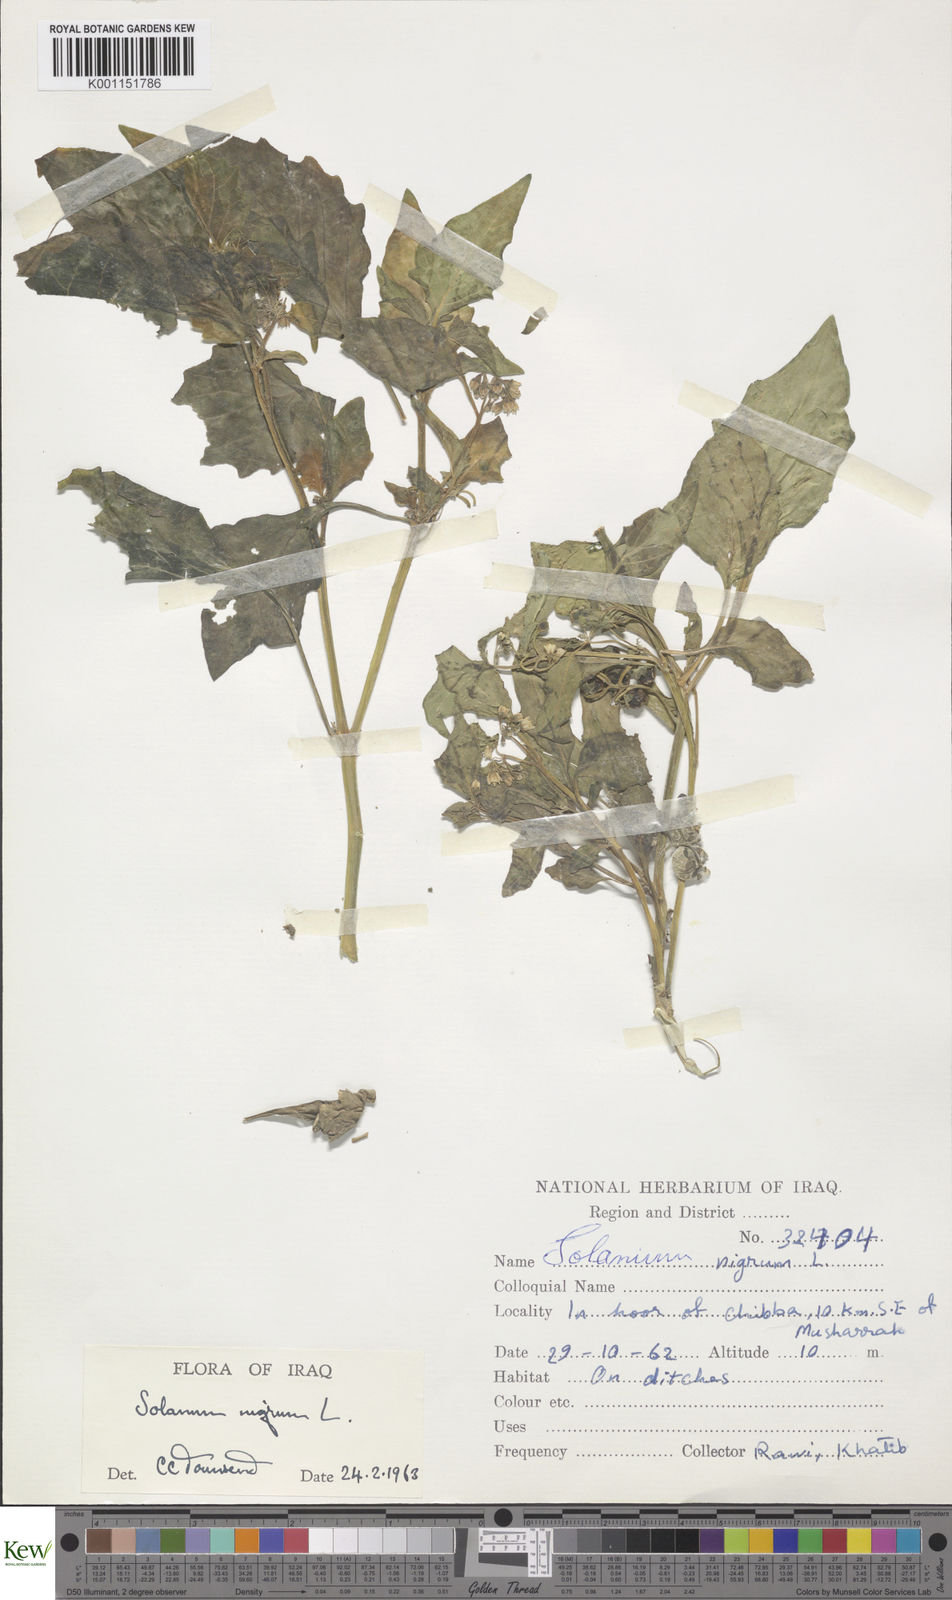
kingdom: Plantae
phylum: Tracheophyta
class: Magnoliopsida
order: Solanales
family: Solanaceae
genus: Solanum
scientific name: Solanum nigrum
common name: Black nightshade
